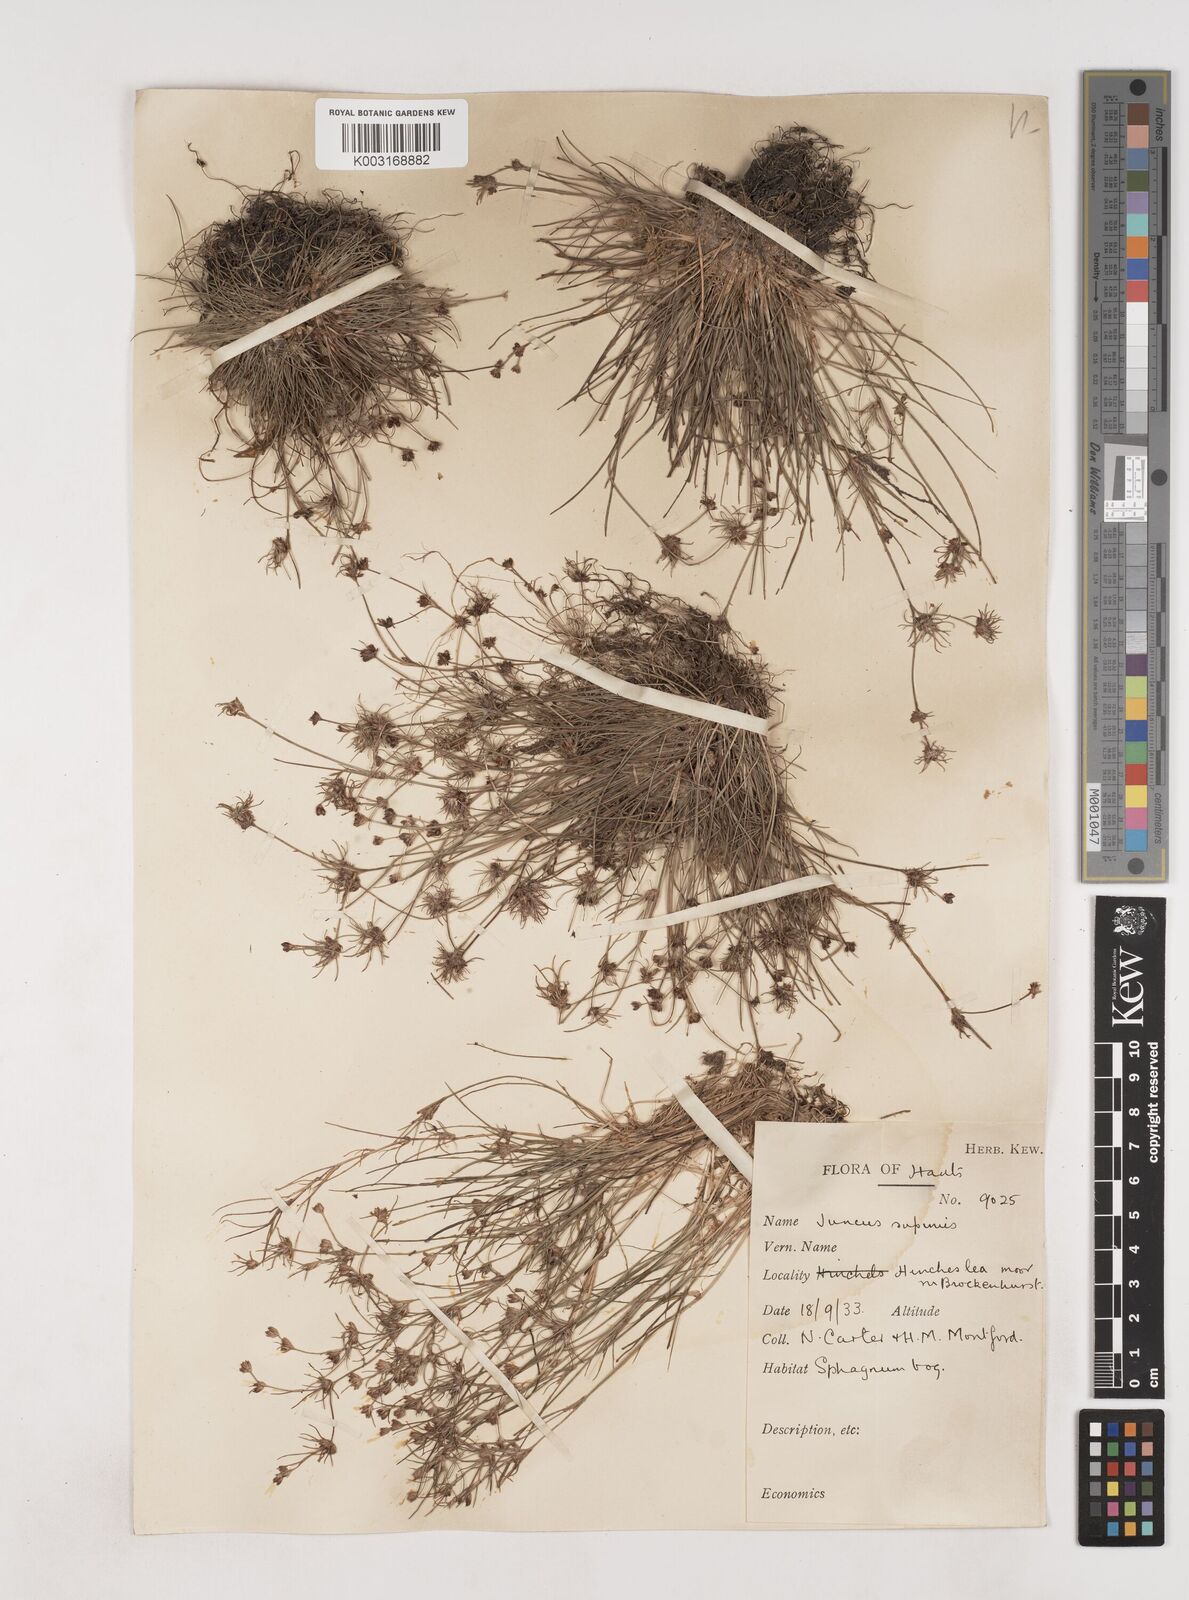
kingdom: Plantae
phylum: Tracheophyta
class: Liliopsida
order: Poales
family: Juncaceae
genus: Juncus
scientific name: Juncus bulbosus
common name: Bulbous rush
